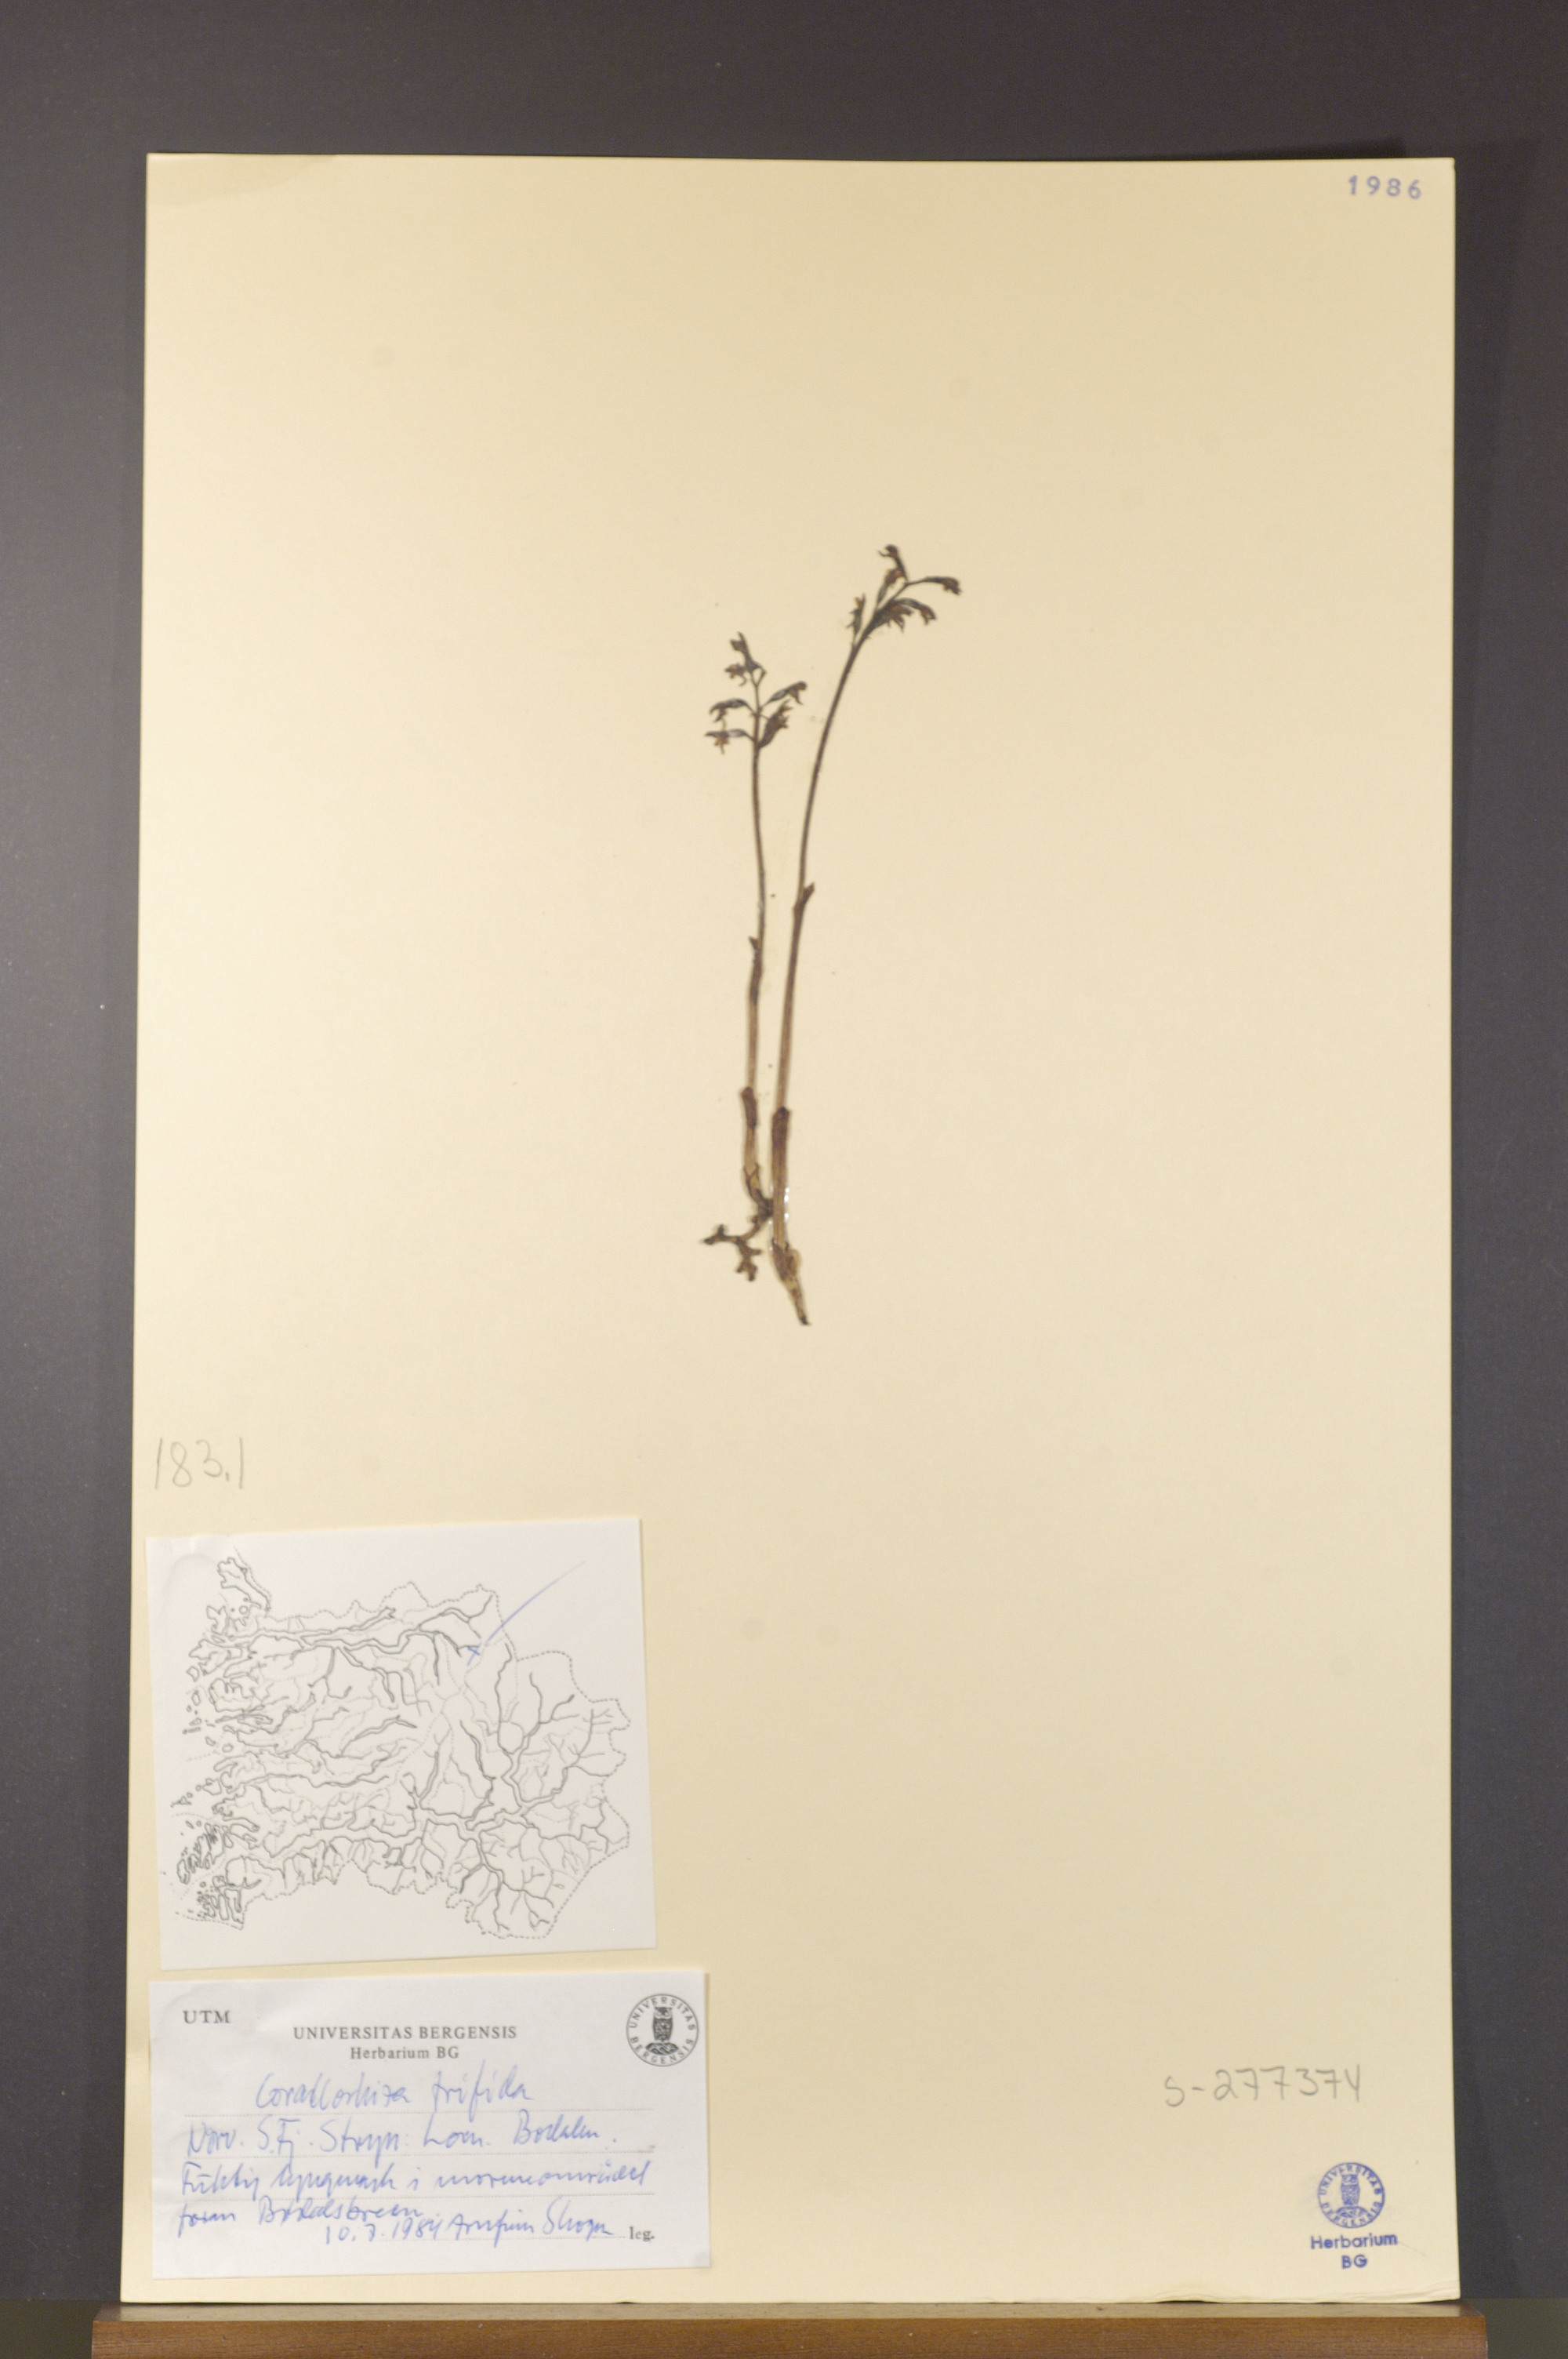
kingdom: Plantae
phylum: Tracheophyta
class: Liliopsida
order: Asparagales
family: Orchidaceae
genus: Corallorhiza
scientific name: Corallorhiza trifida
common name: Yellow coralroot
